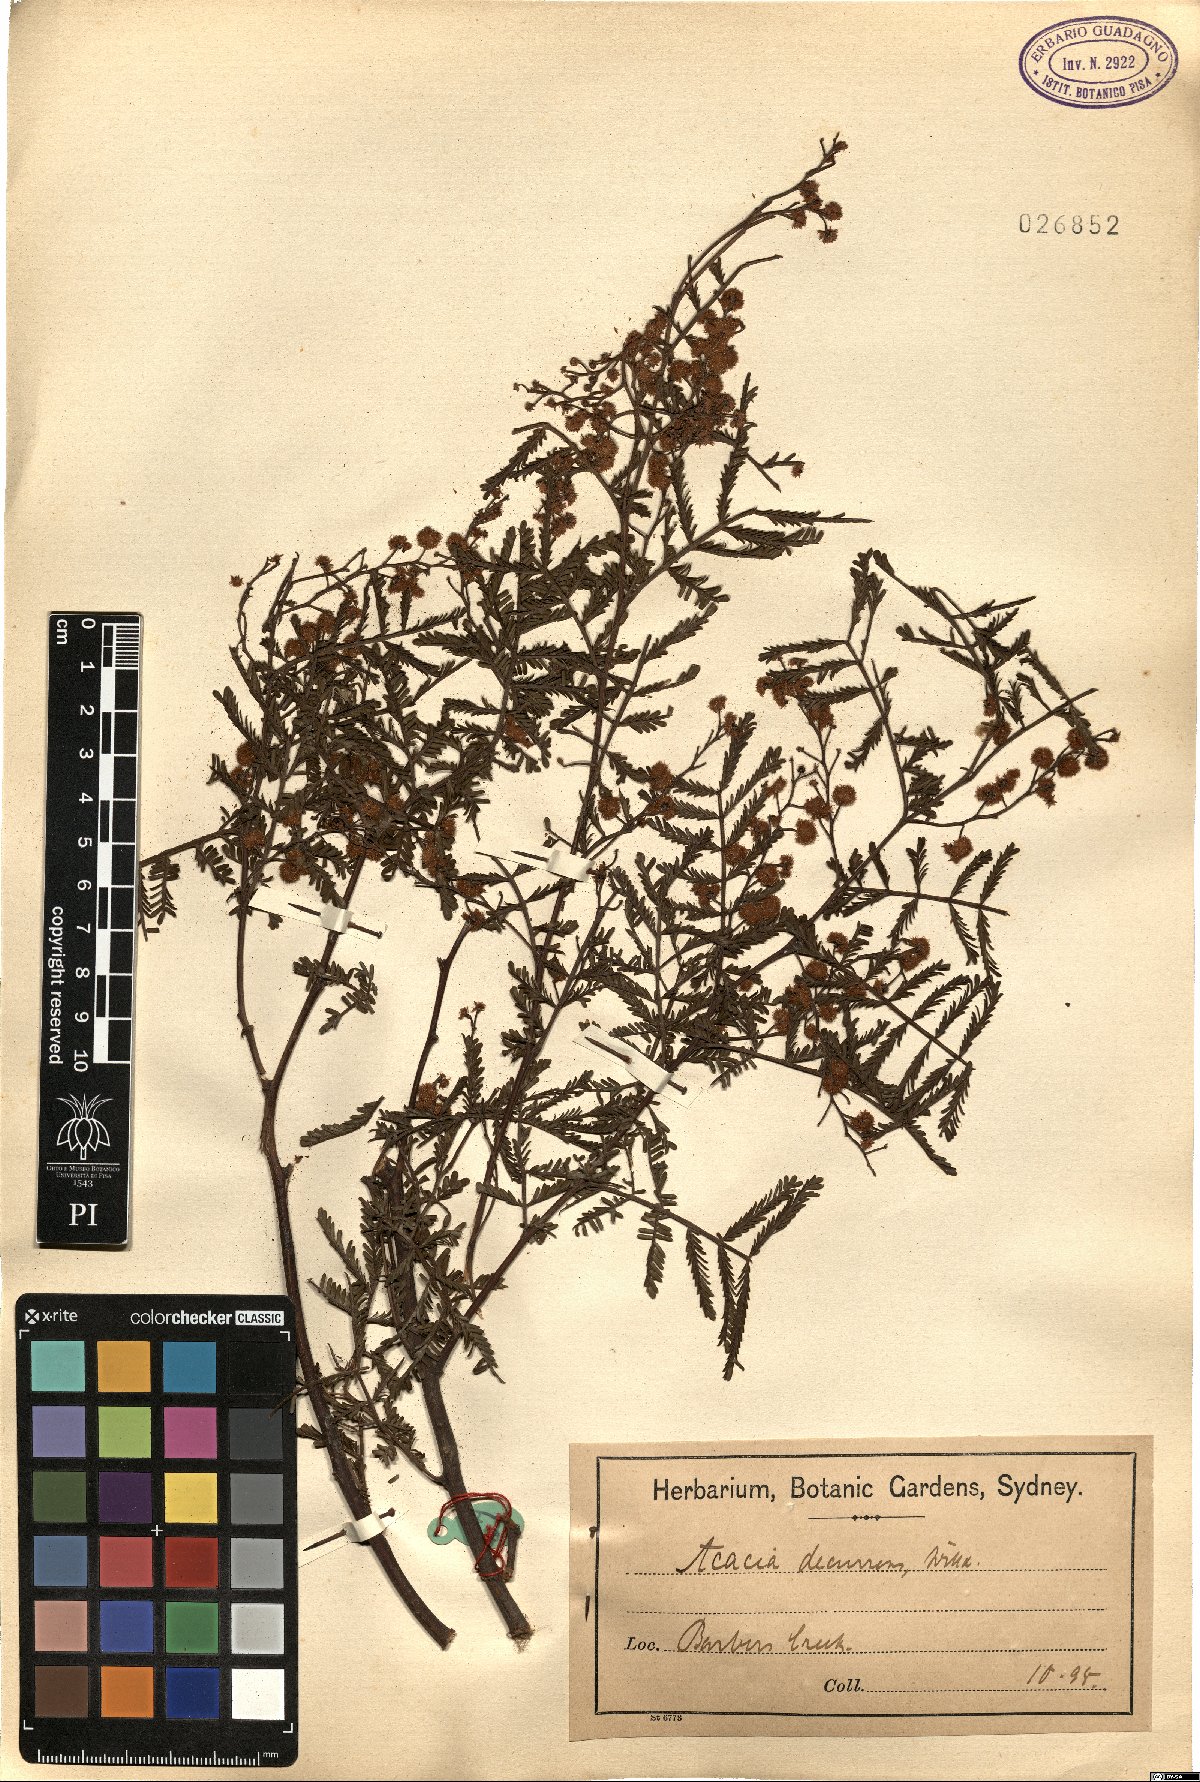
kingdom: Plantae
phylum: Tracheophyta
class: Magnoliopsida
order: Fabales
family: Fabaceae
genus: Acacia
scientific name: Acacia decurrens
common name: Green wattle
